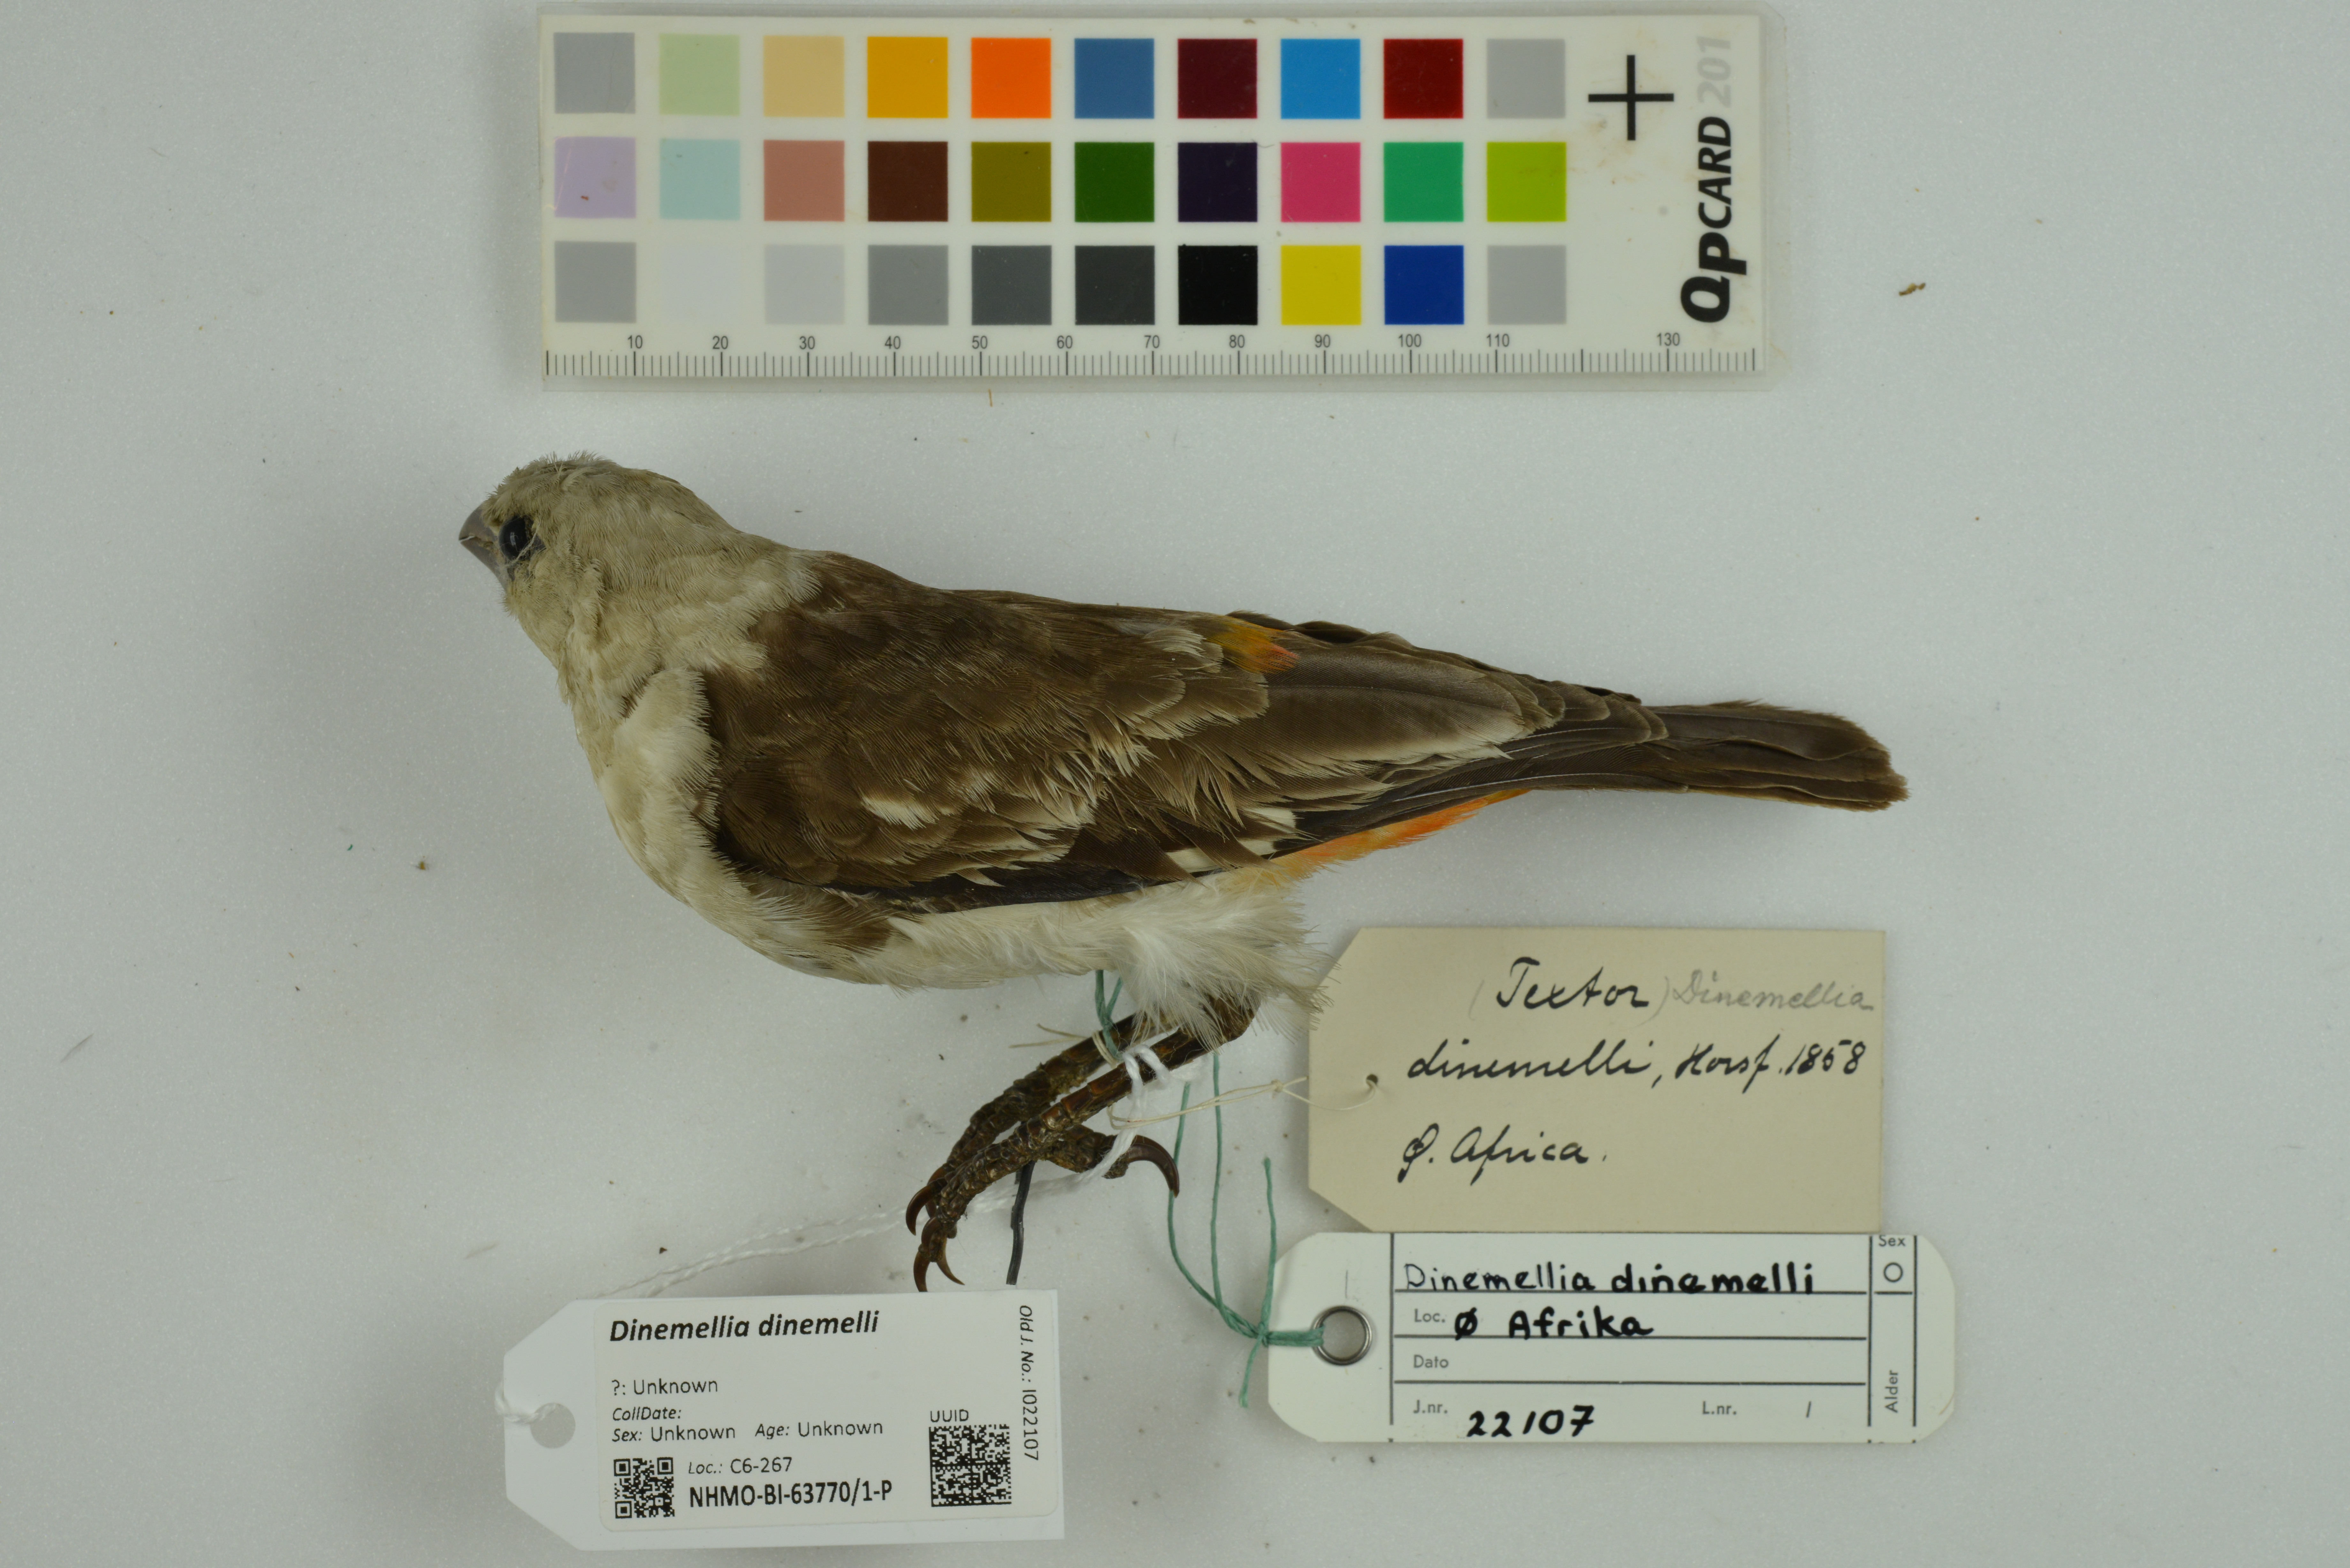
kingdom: Animalia
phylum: Chordata
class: Aves
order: Passeriformes
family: Ploceidae
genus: Dinemellia
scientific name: Dinemellia dinemelli
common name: White-headed buffalo weaver
